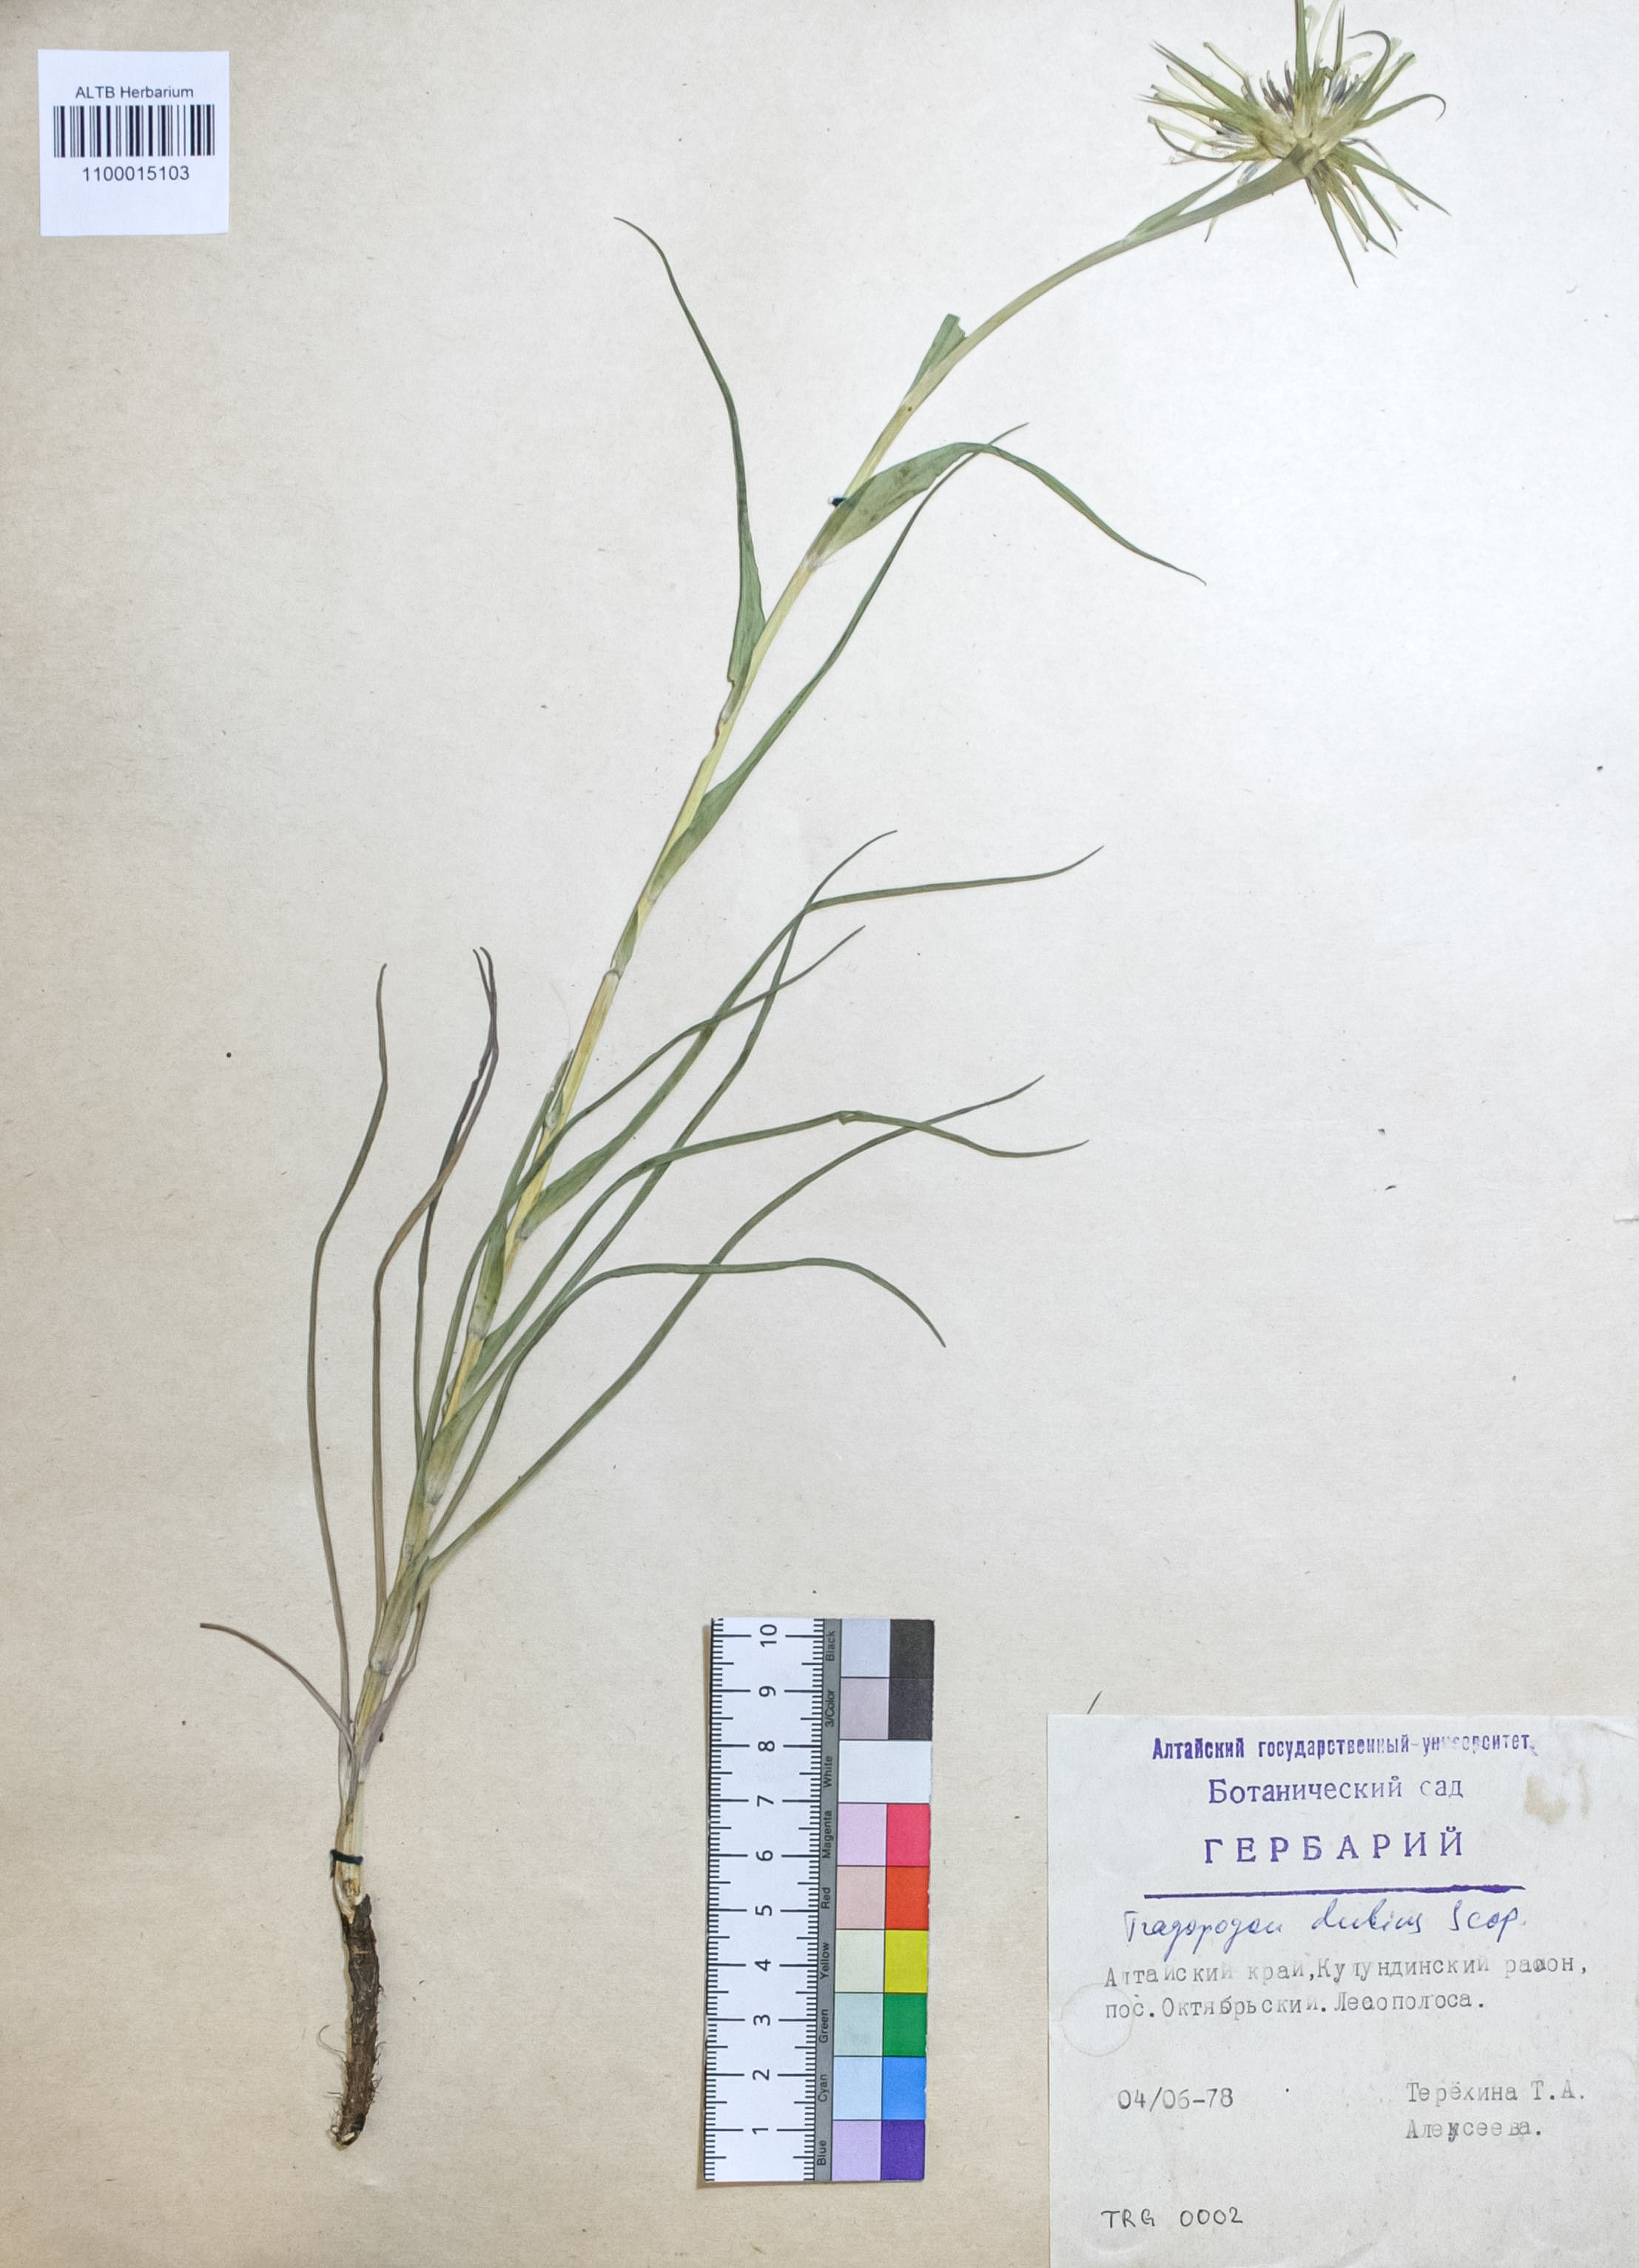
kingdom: Plantae
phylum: Tracheophyta
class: Magnoliopsida
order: Asterales
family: Asteraceae
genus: Tragopogon
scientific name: Tragopogon dubius
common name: Yellow salsify
